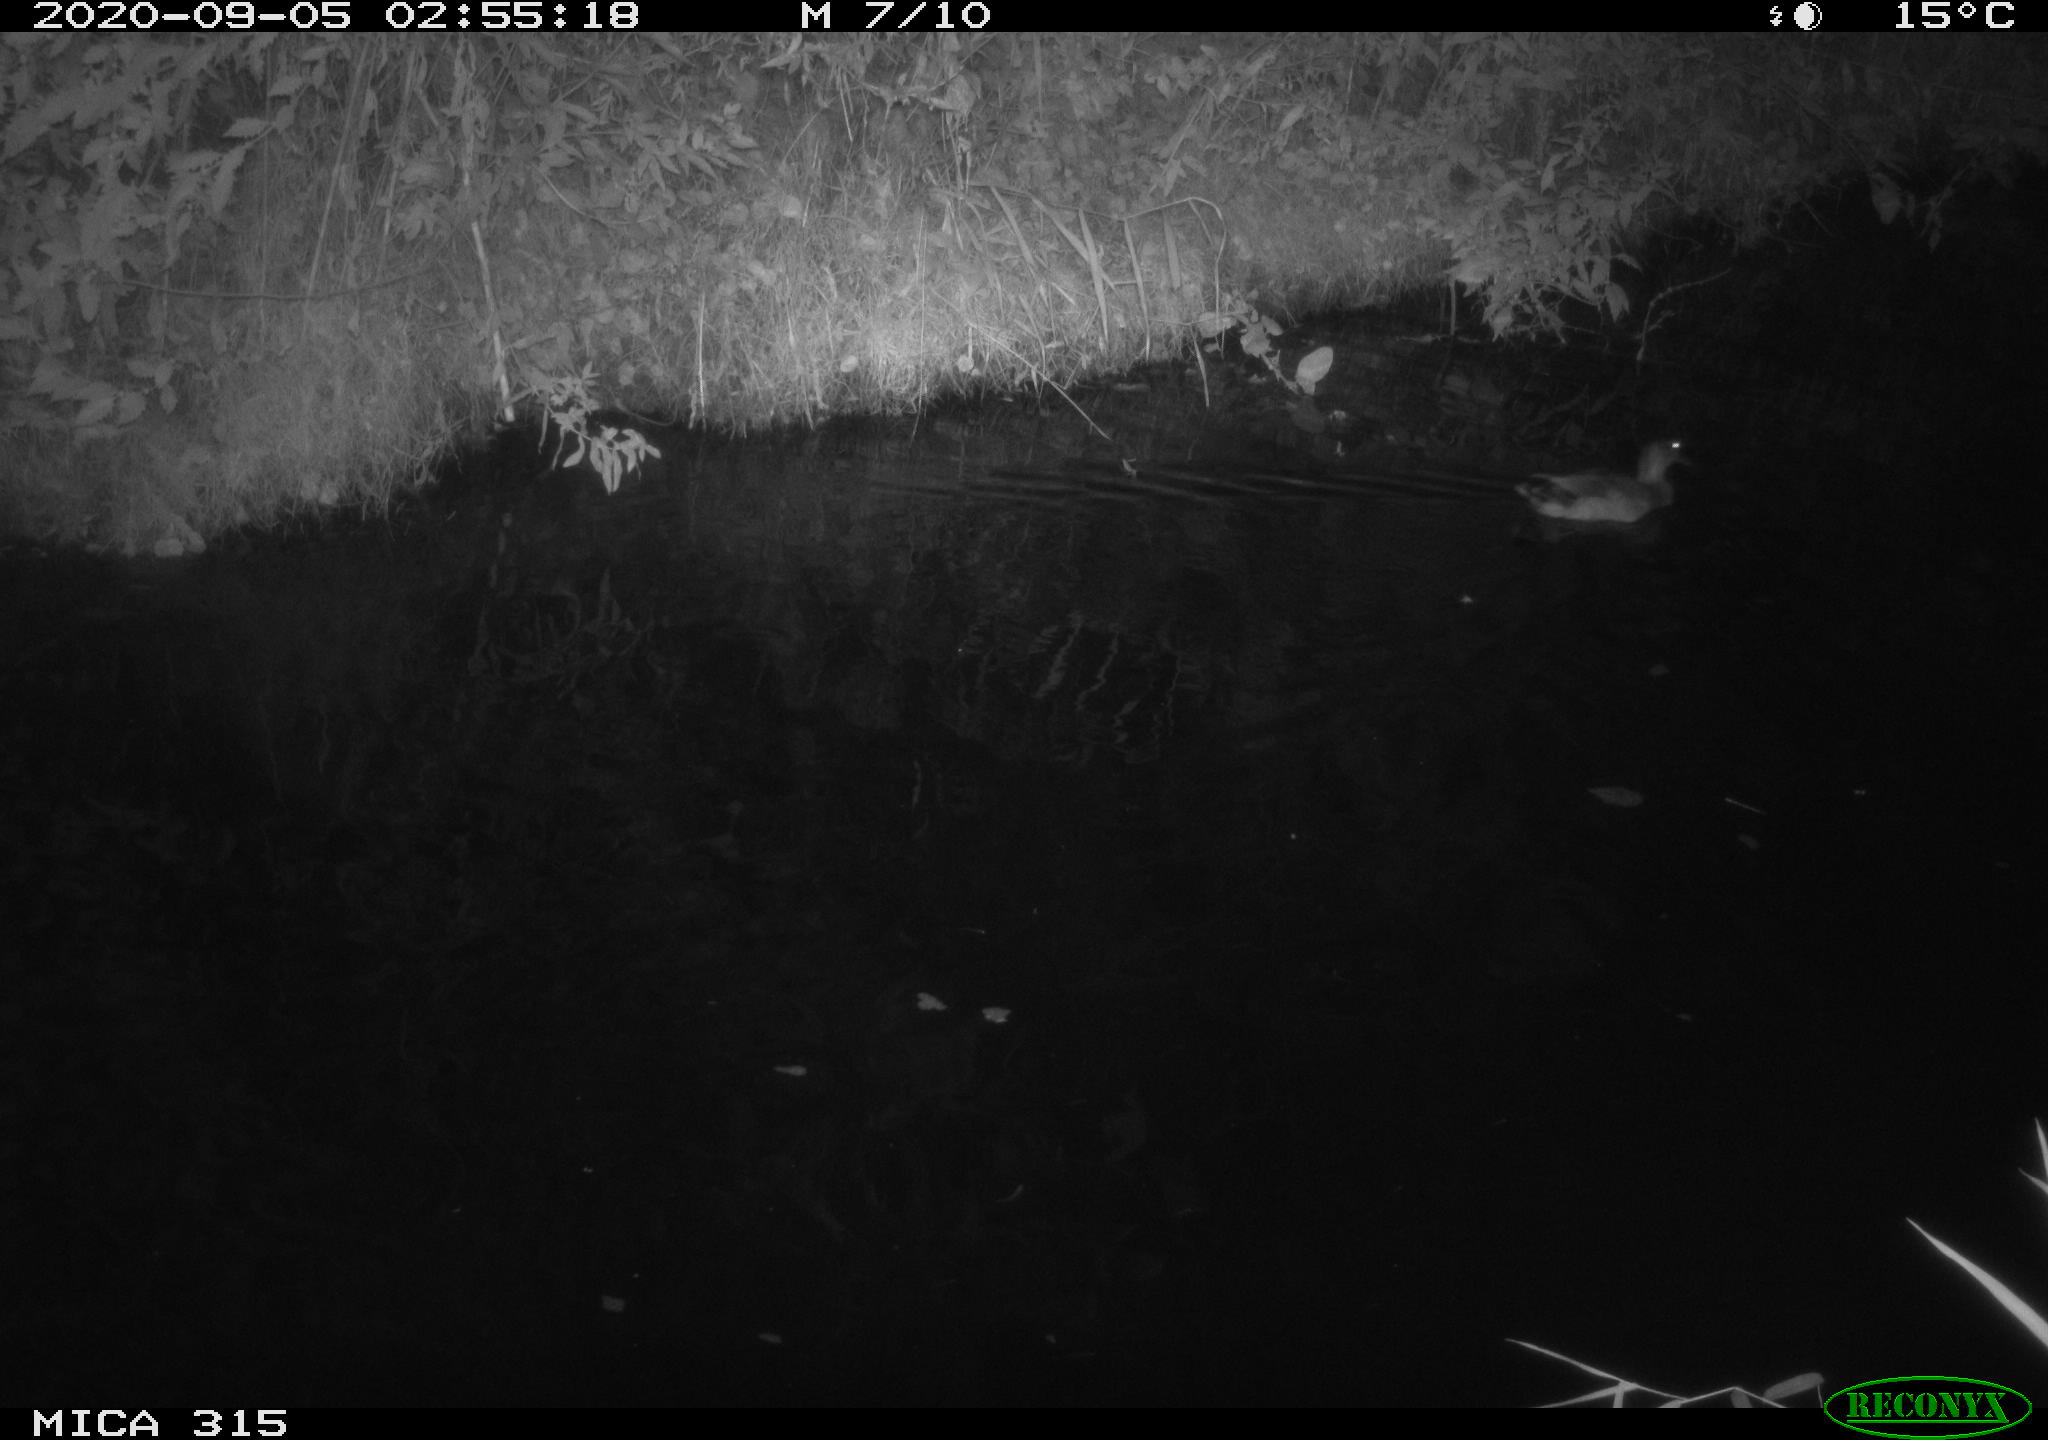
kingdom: Animalia
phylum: Chordata
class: Aves
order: Anseriformes
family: Anatidae
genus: Anas
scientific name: Anas platyrhynchos
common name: Mallard
